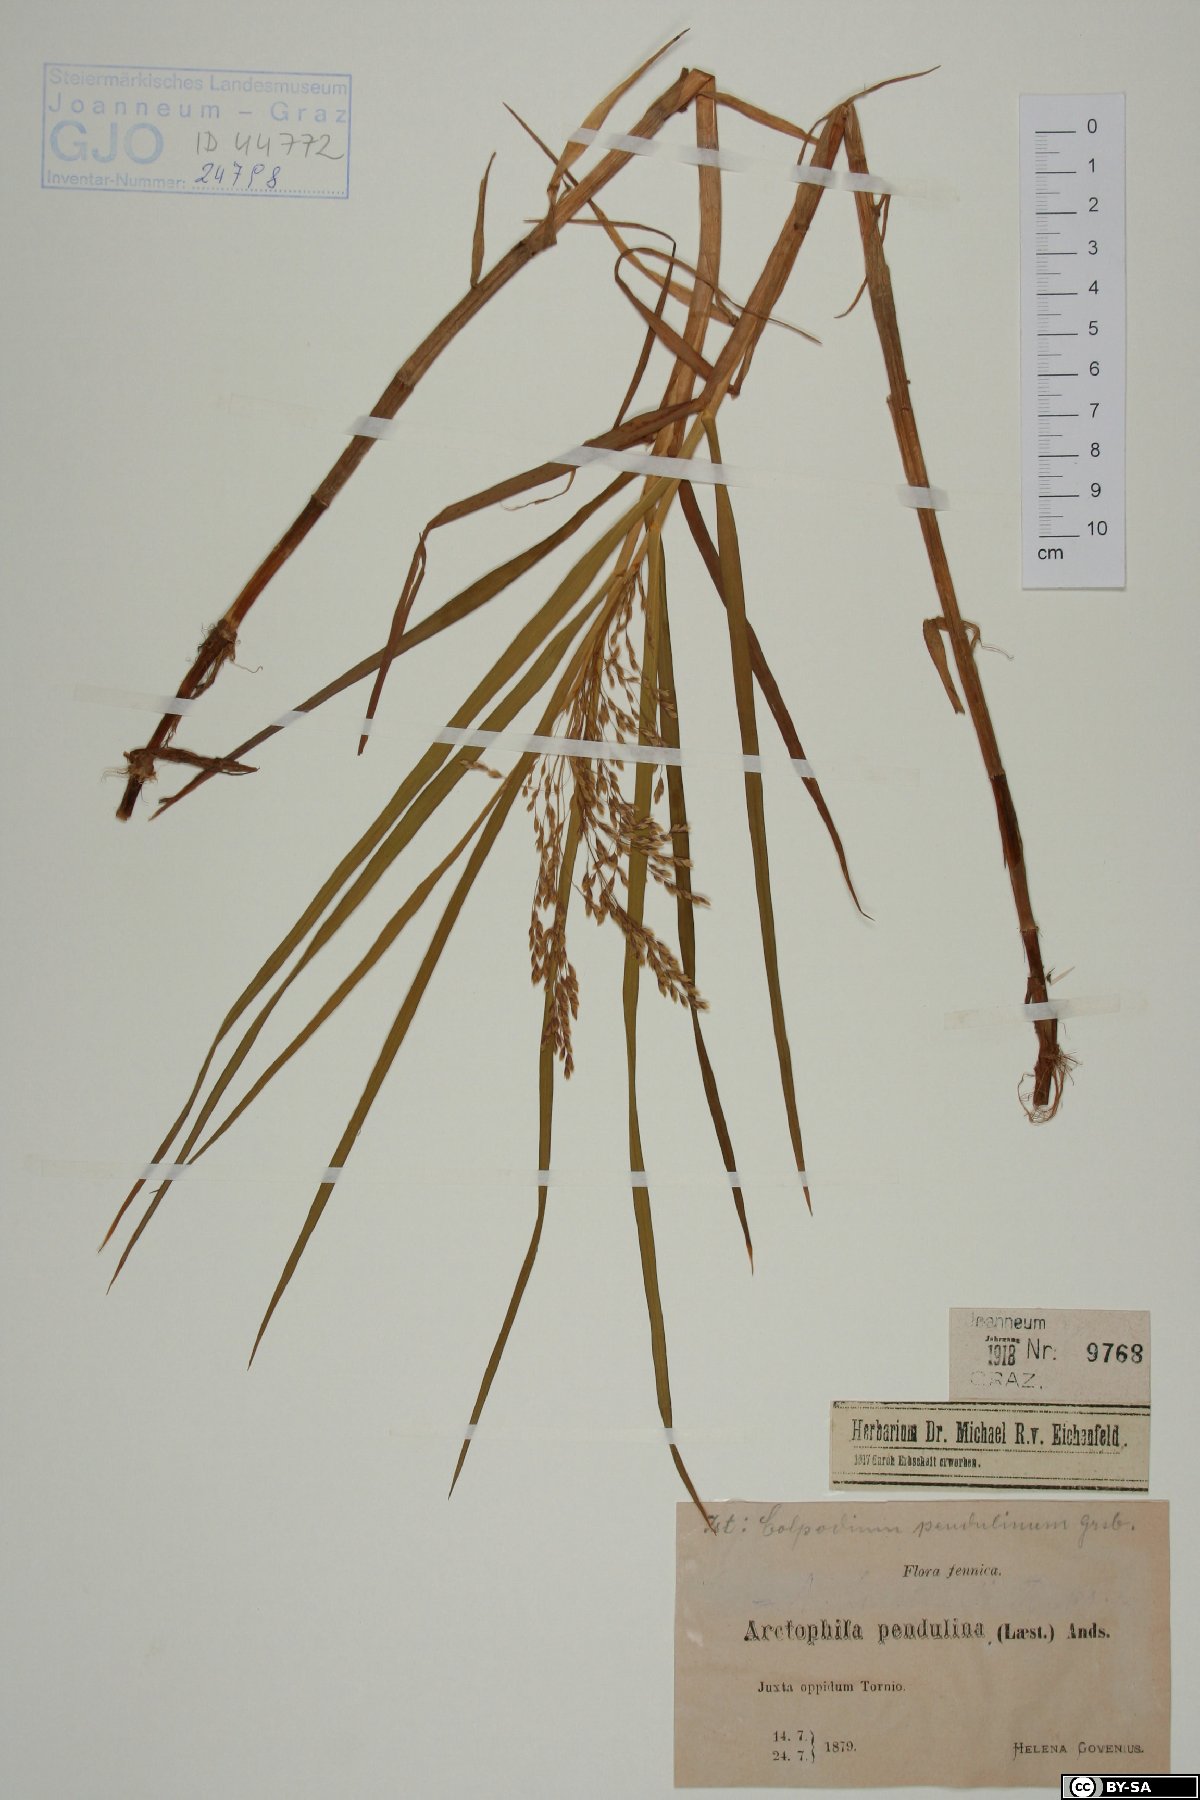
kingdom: Plantae
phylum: Tracheophyta
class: Liliopsida
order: Poales
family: Poaceae
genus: Dupontia
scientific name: Dupontia fulva
